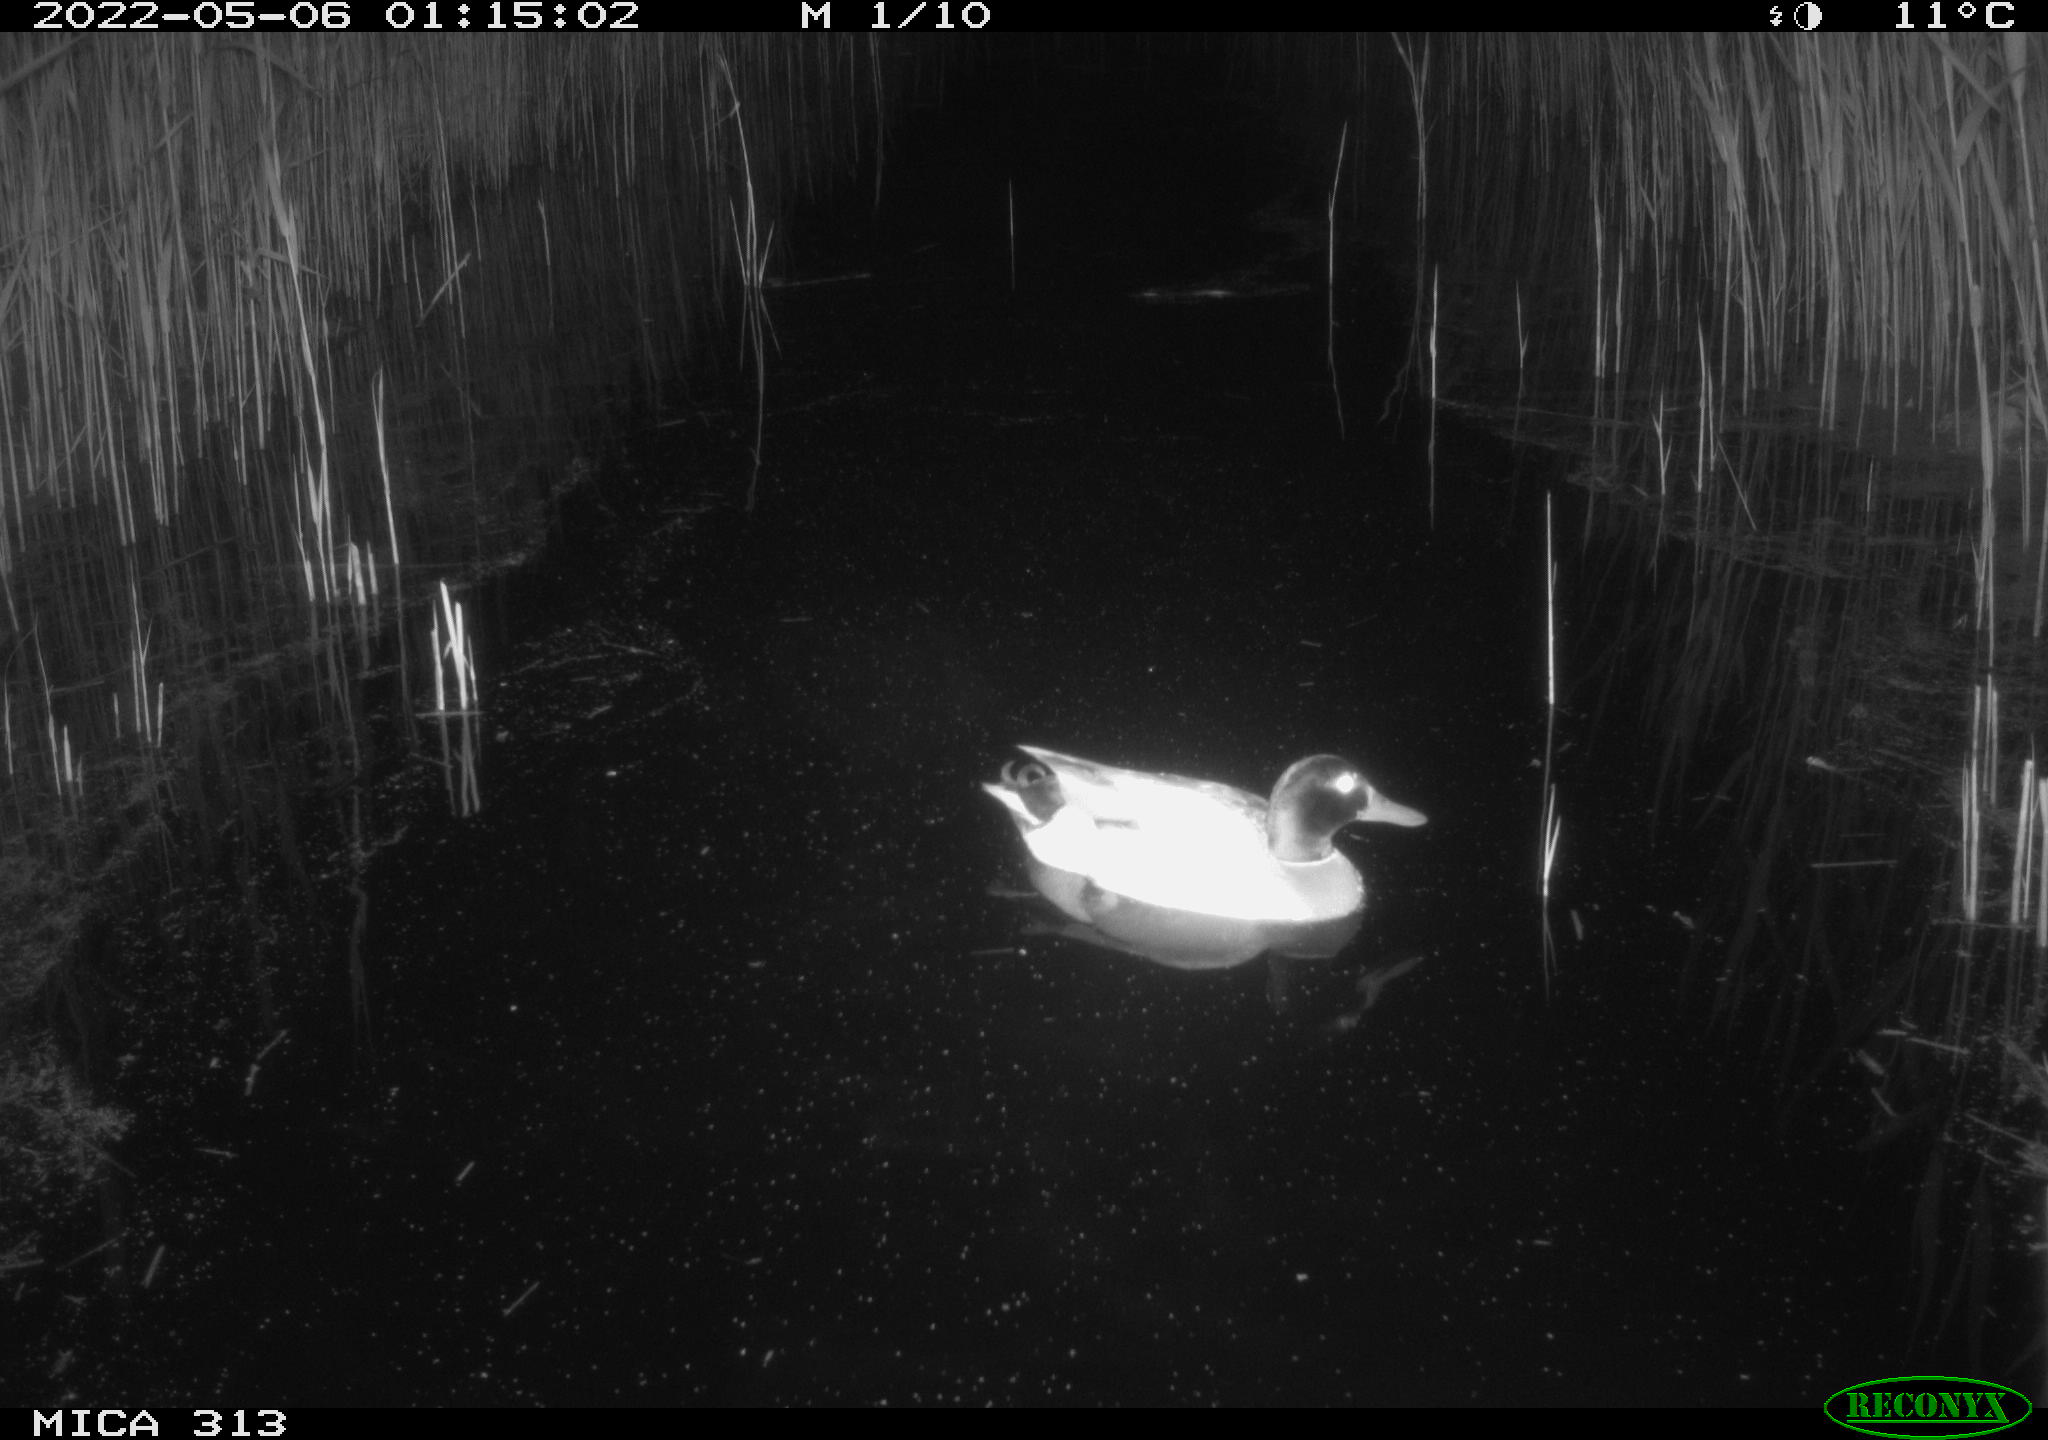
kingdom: Animalia
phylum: Chordata
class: Aves
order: Anseriformes
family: Anatidae
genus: Anas
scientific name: Anas platyrhynchos
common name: Mallard
